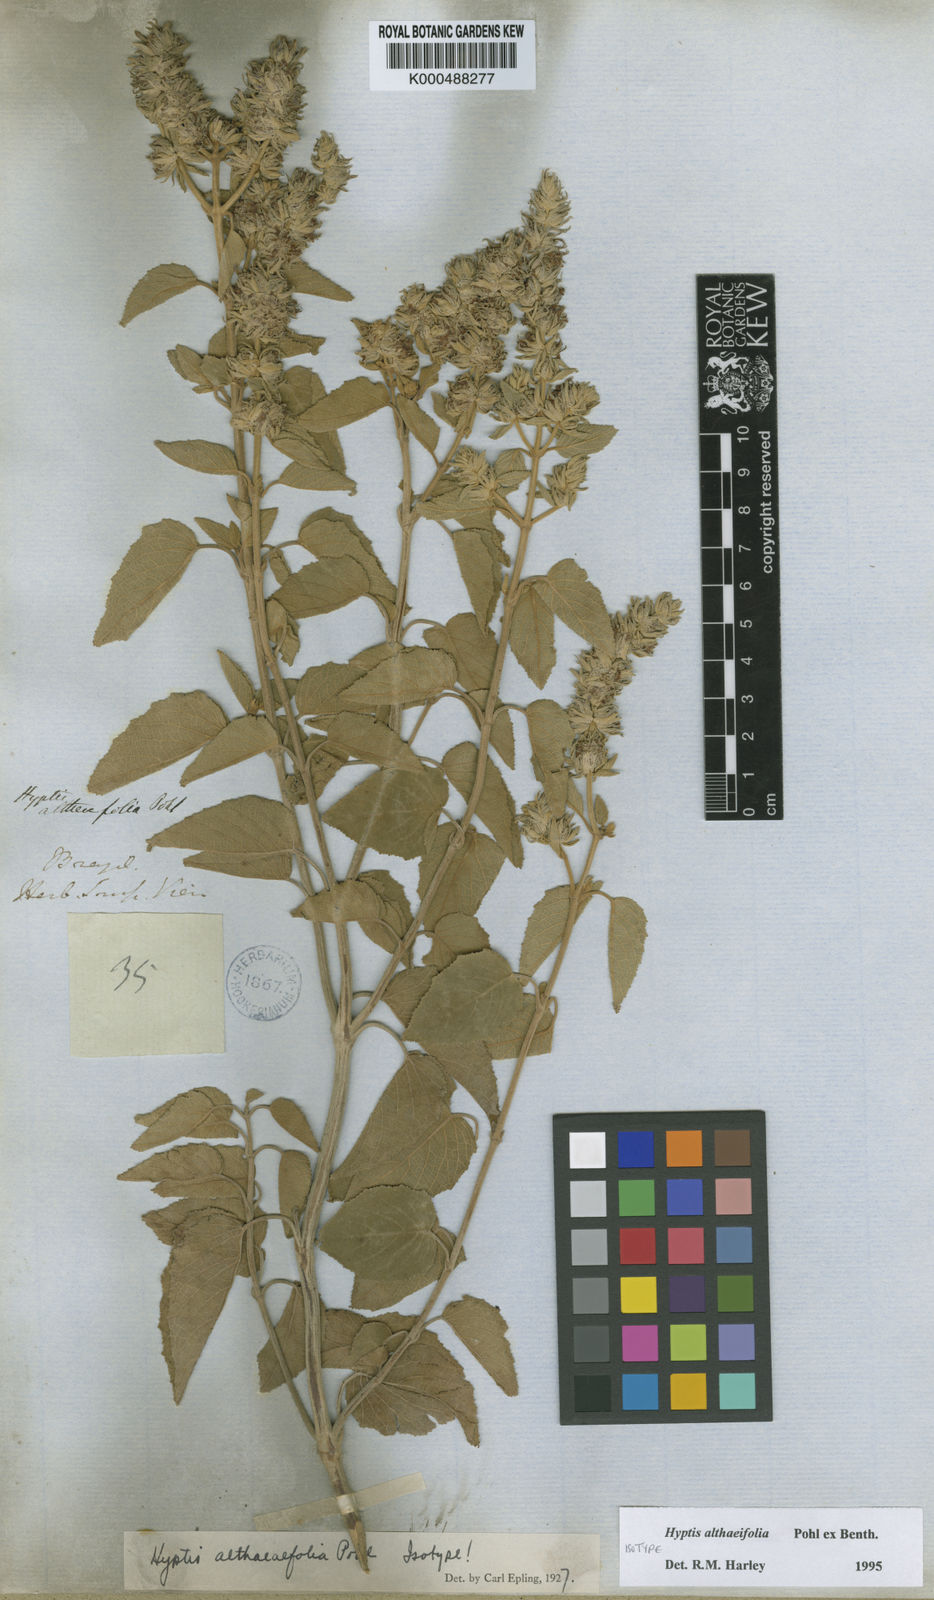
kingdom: Plantae
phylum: Tracheophyta
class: Magnoliopsida
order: Lamiales
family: Lamiaceae
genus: Cantinoa
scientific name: Cantinoa althaeifolia
